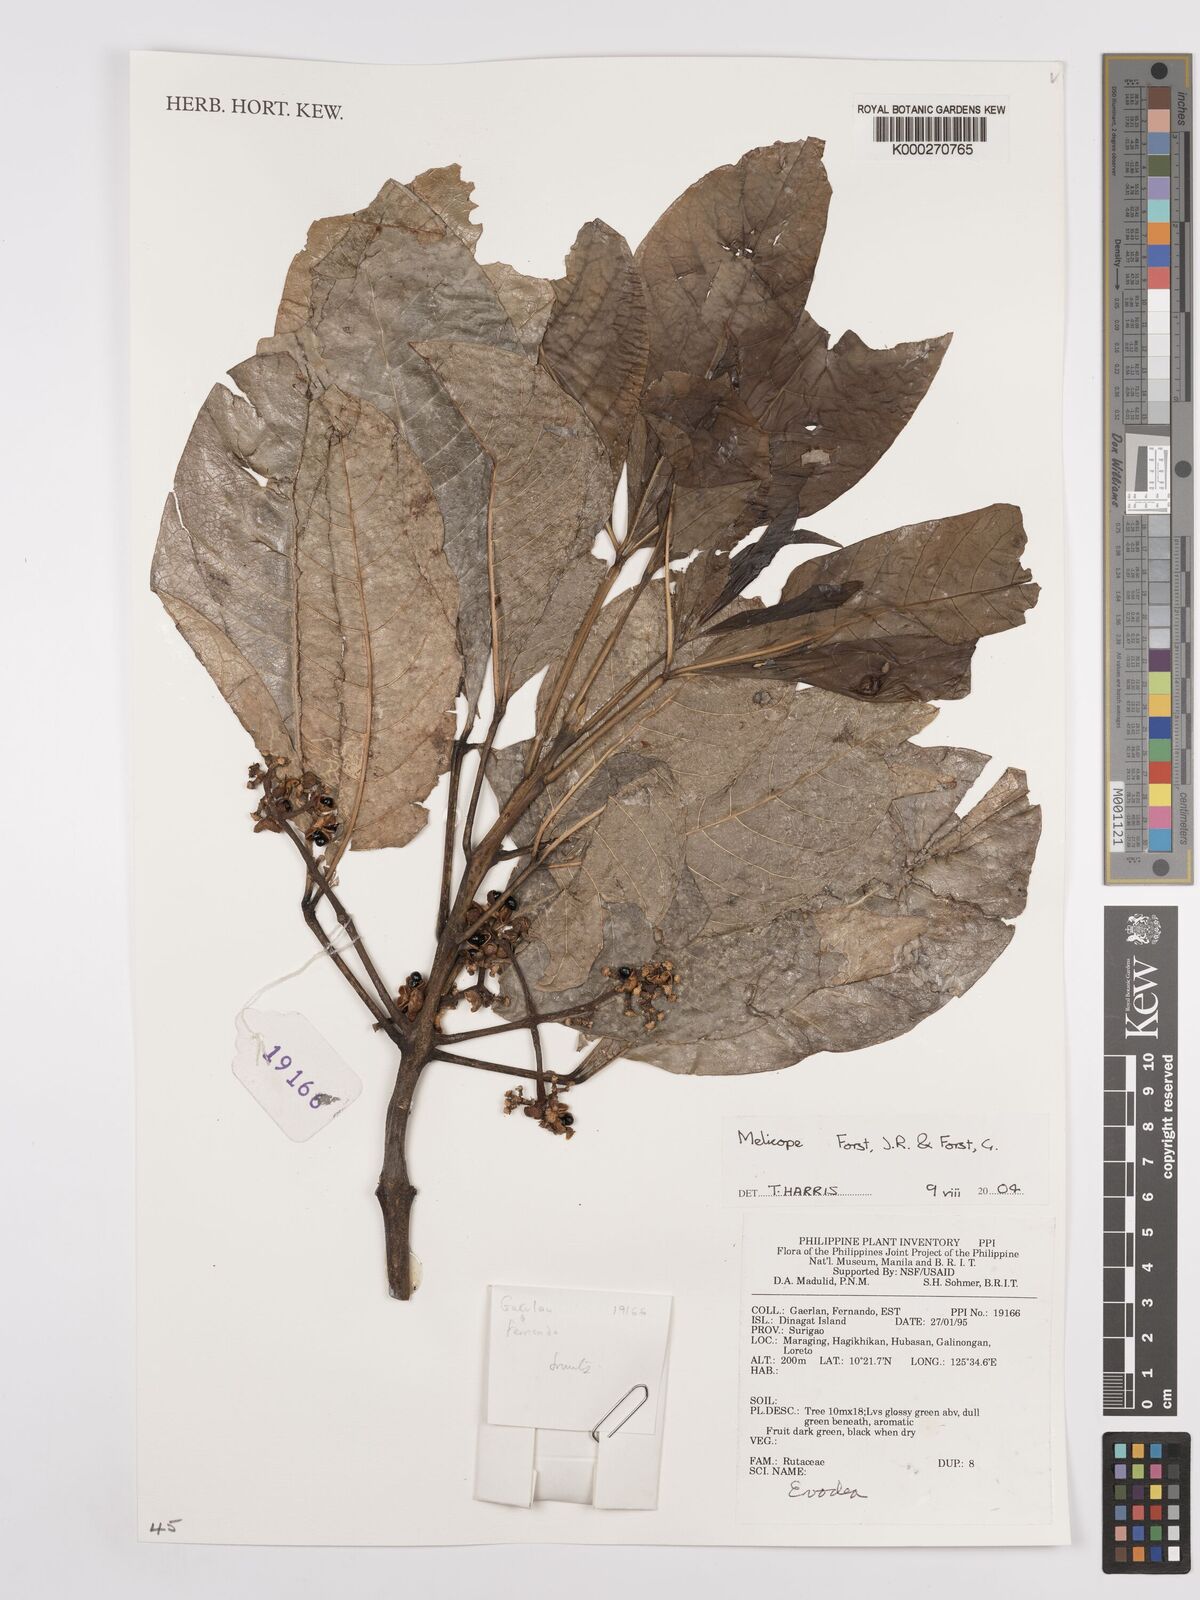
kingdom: Plantae
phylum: Tracheophyta
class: Magnoliopsida
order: Sapindales
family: Rutaceae
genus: Melicope
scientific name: Melicope
